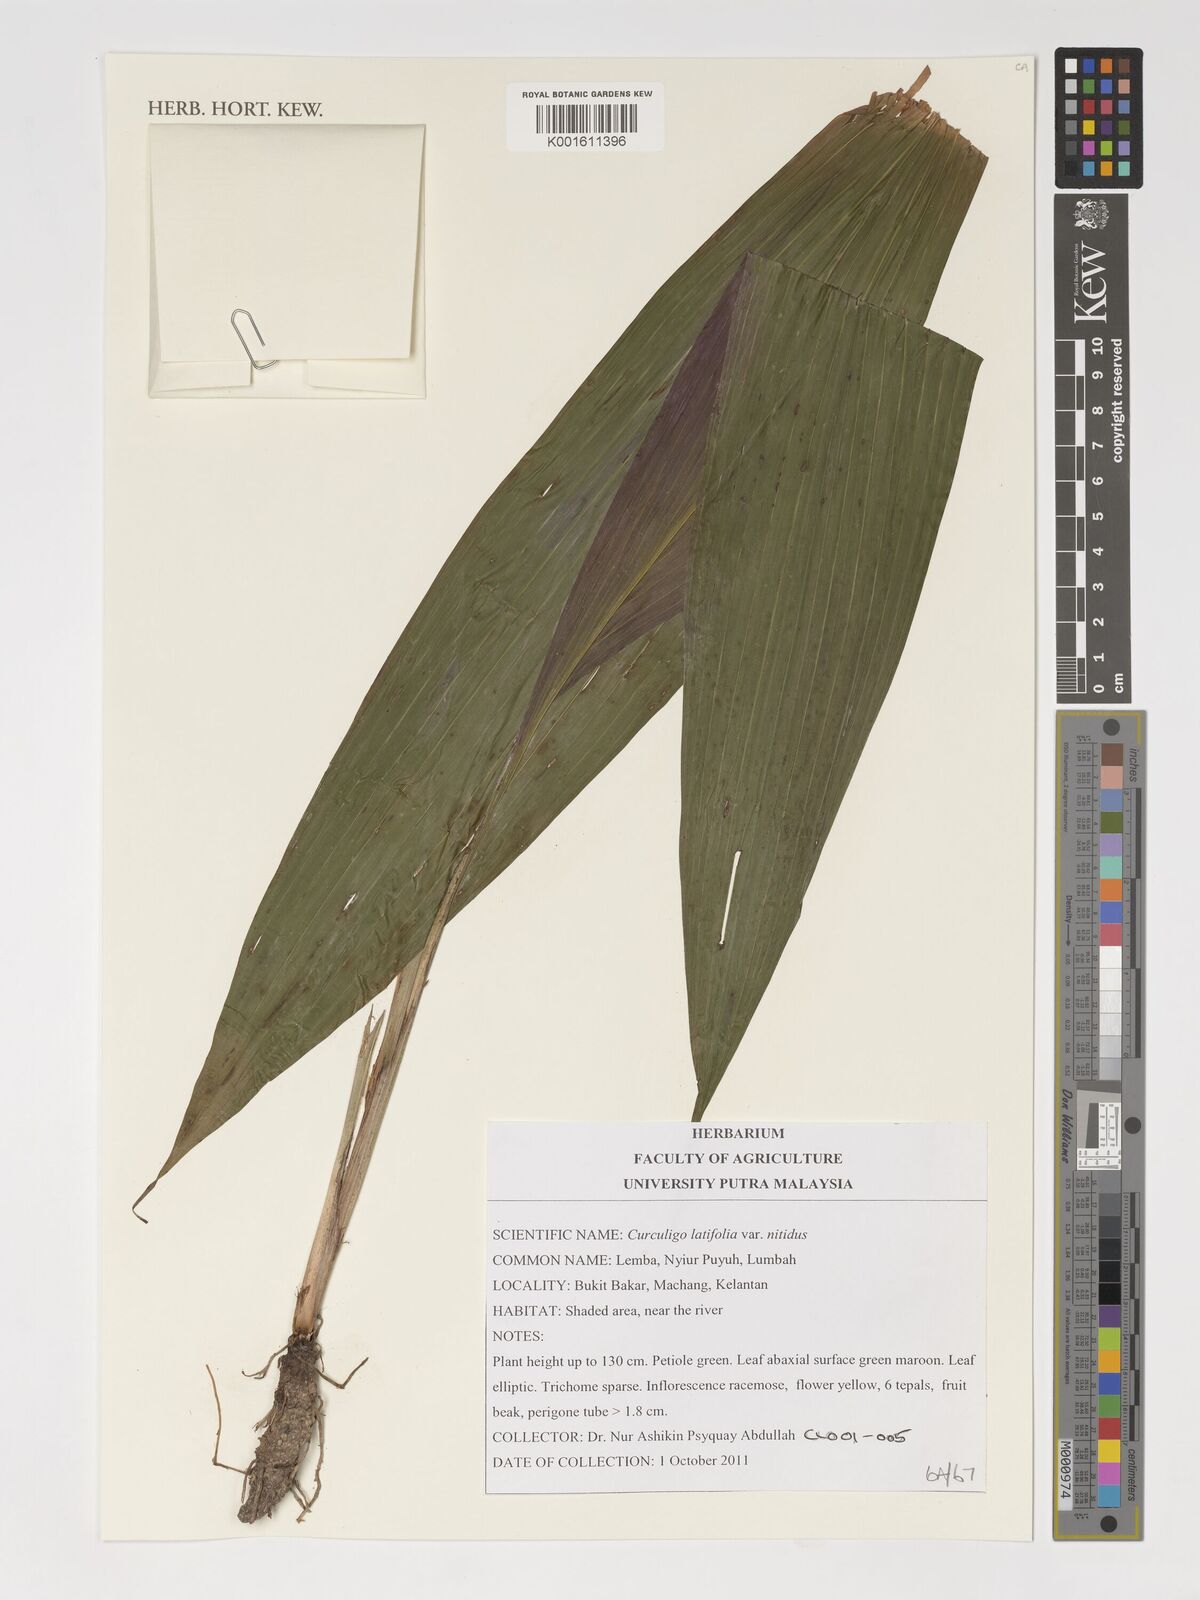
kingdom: Plantae
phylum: Tracheophyta
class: Liliopsida
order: Asparagales
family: Hypoxidaceae
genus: Curculigo
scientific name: Curculigo latifolia
